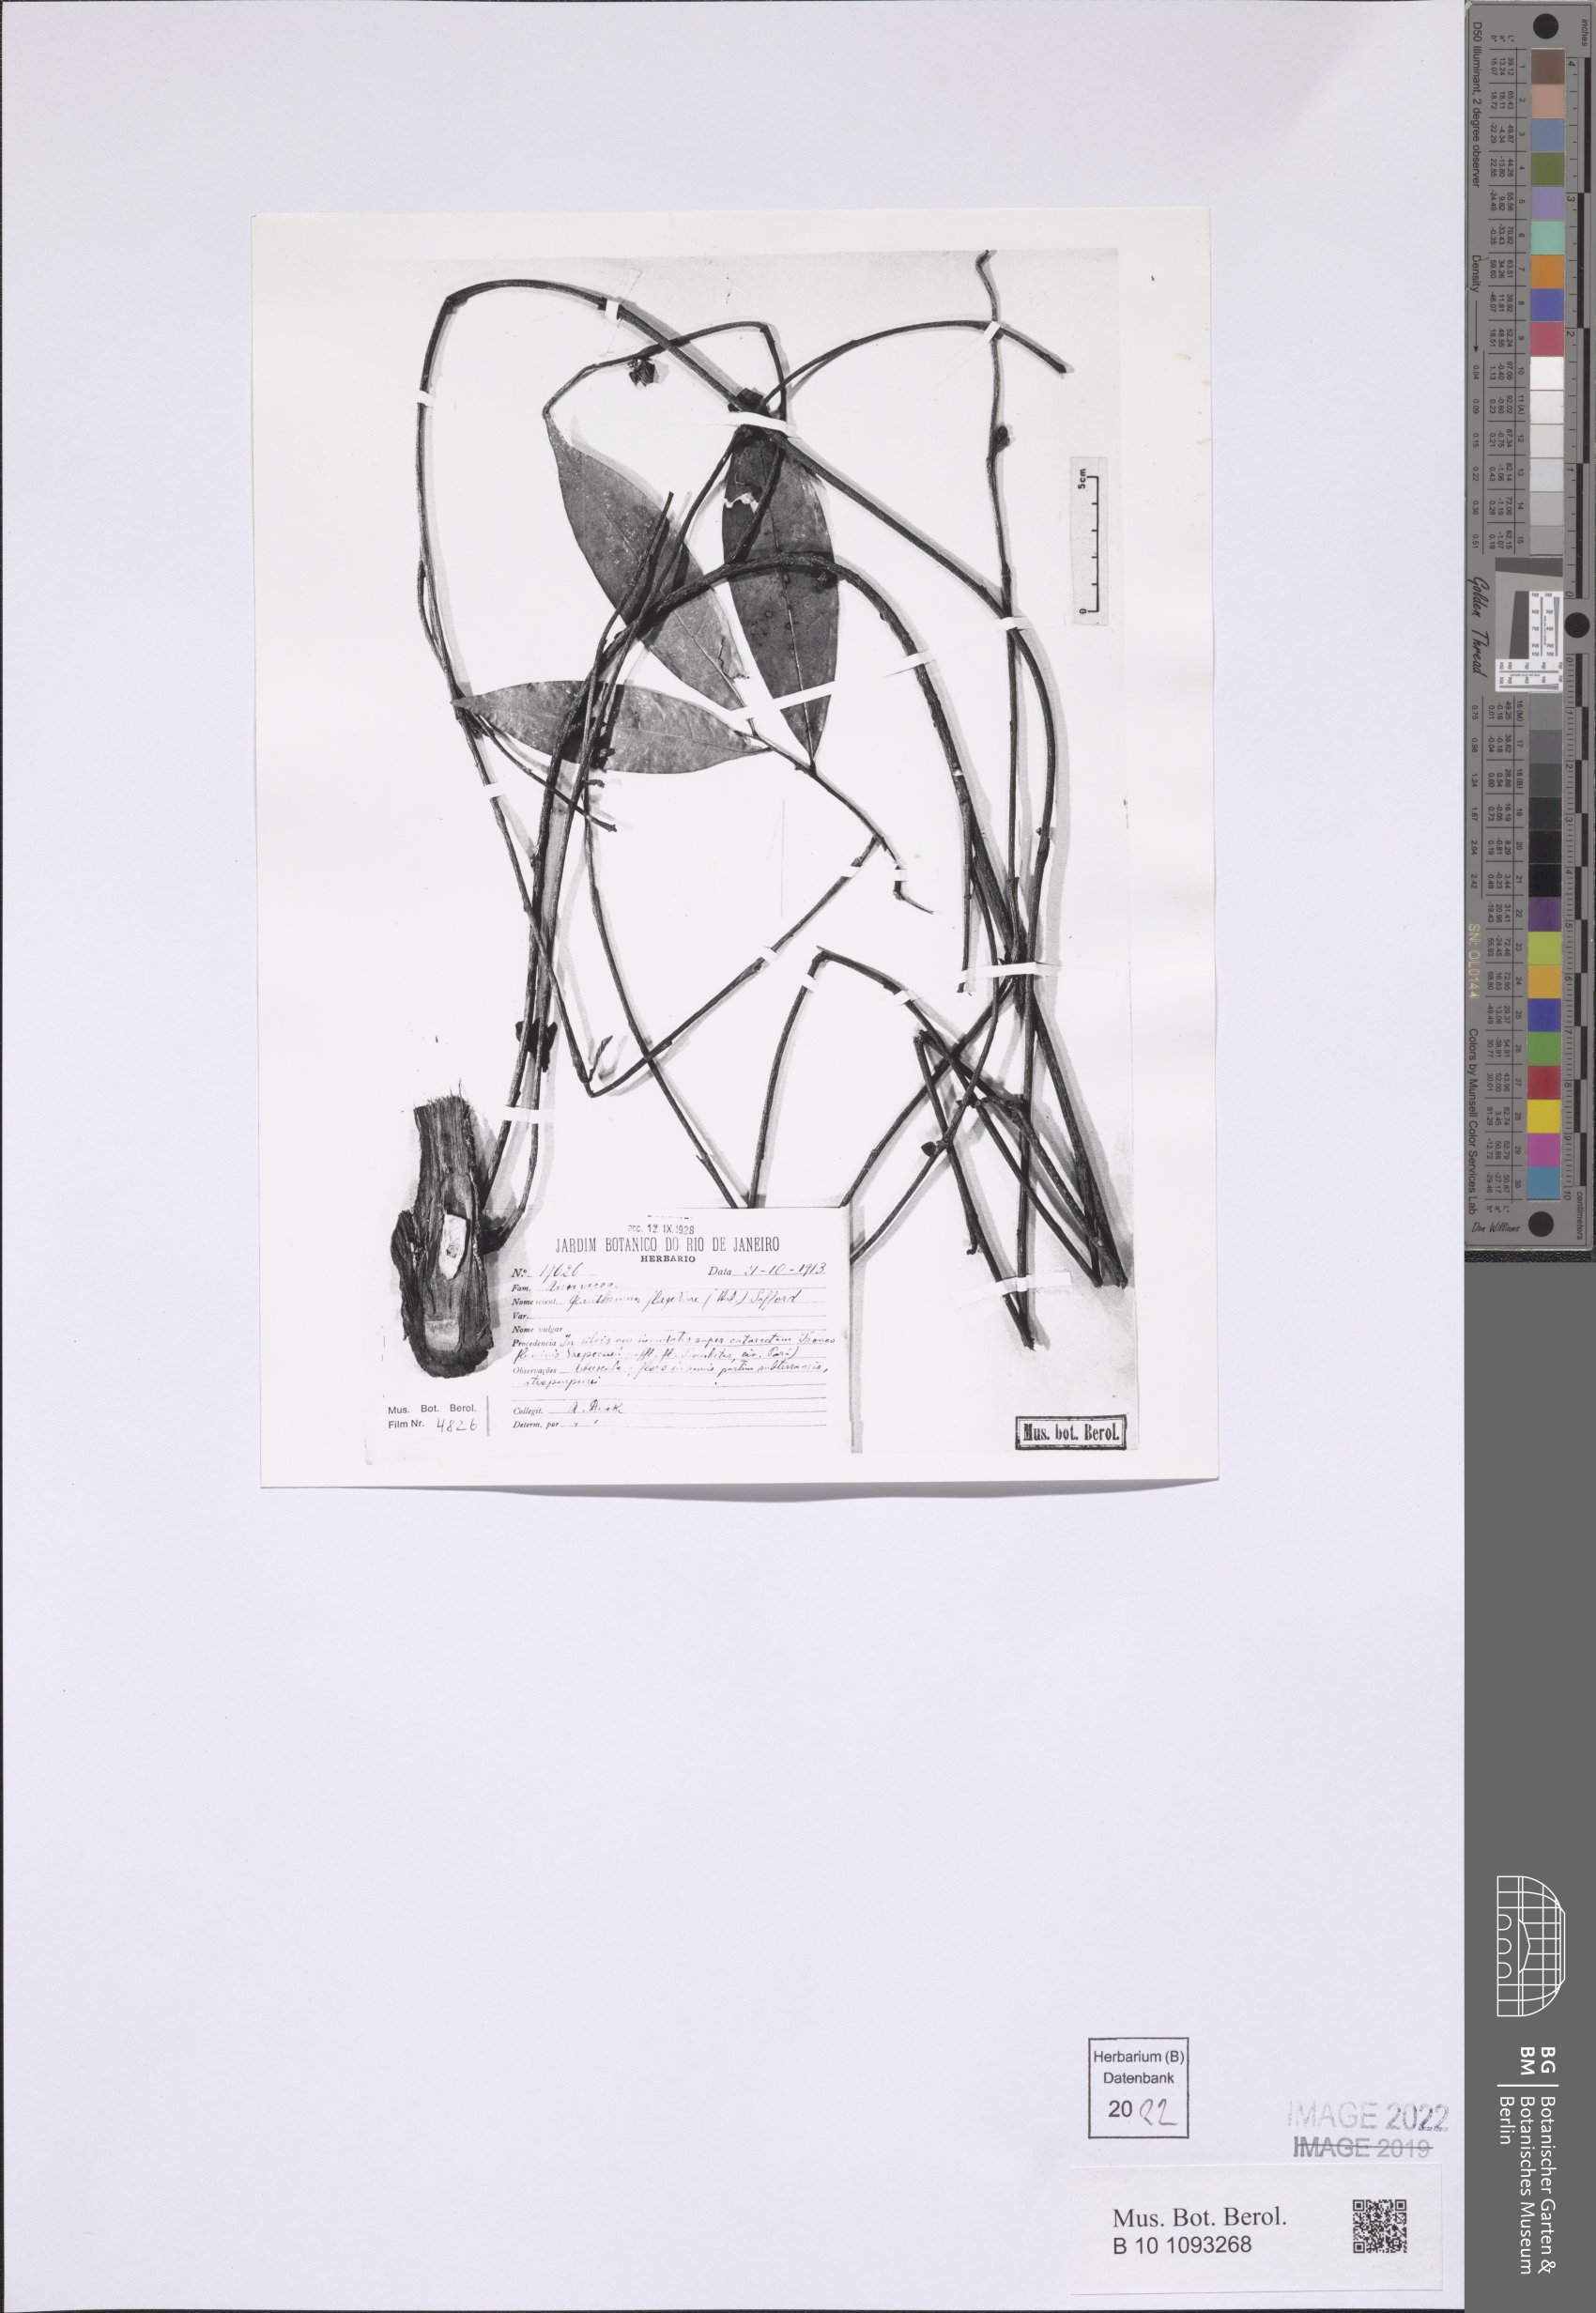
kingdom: Plantae
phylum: Tracheophyta
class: Magnoliopsida
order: Magnoliales
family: Annonaceae
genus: Duguetia
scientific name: Duguetia flagellaris
